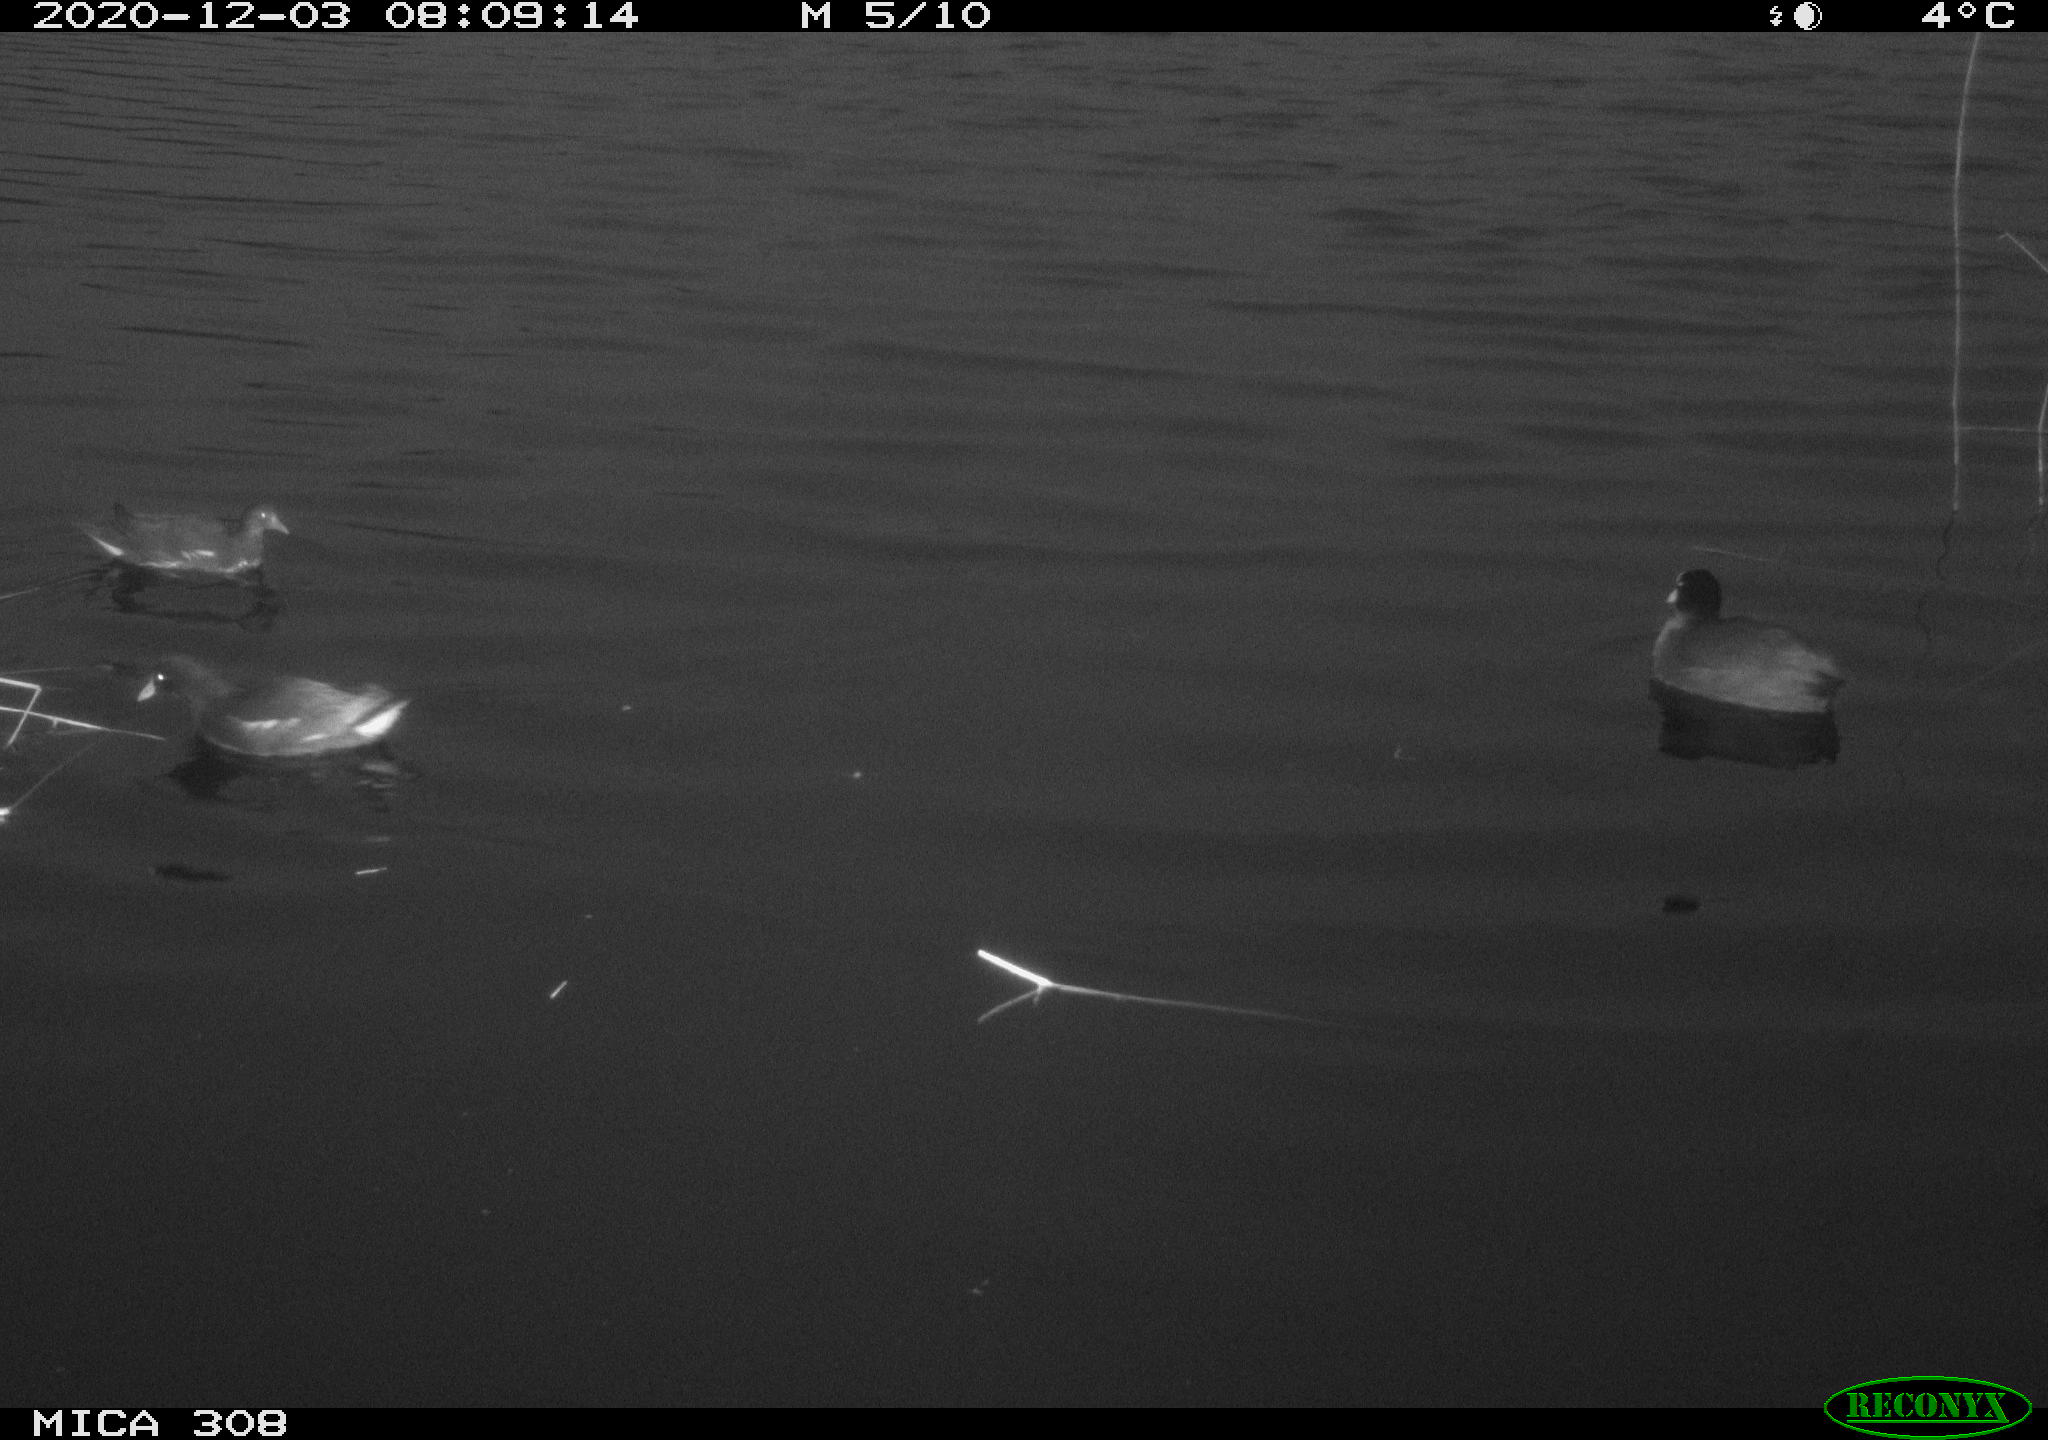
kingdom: Animalia
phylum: Chordata
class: Aves
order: Gruiformes
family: Rallidae
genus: Fulica
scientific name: Fulica atra
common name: Eurasian coot
